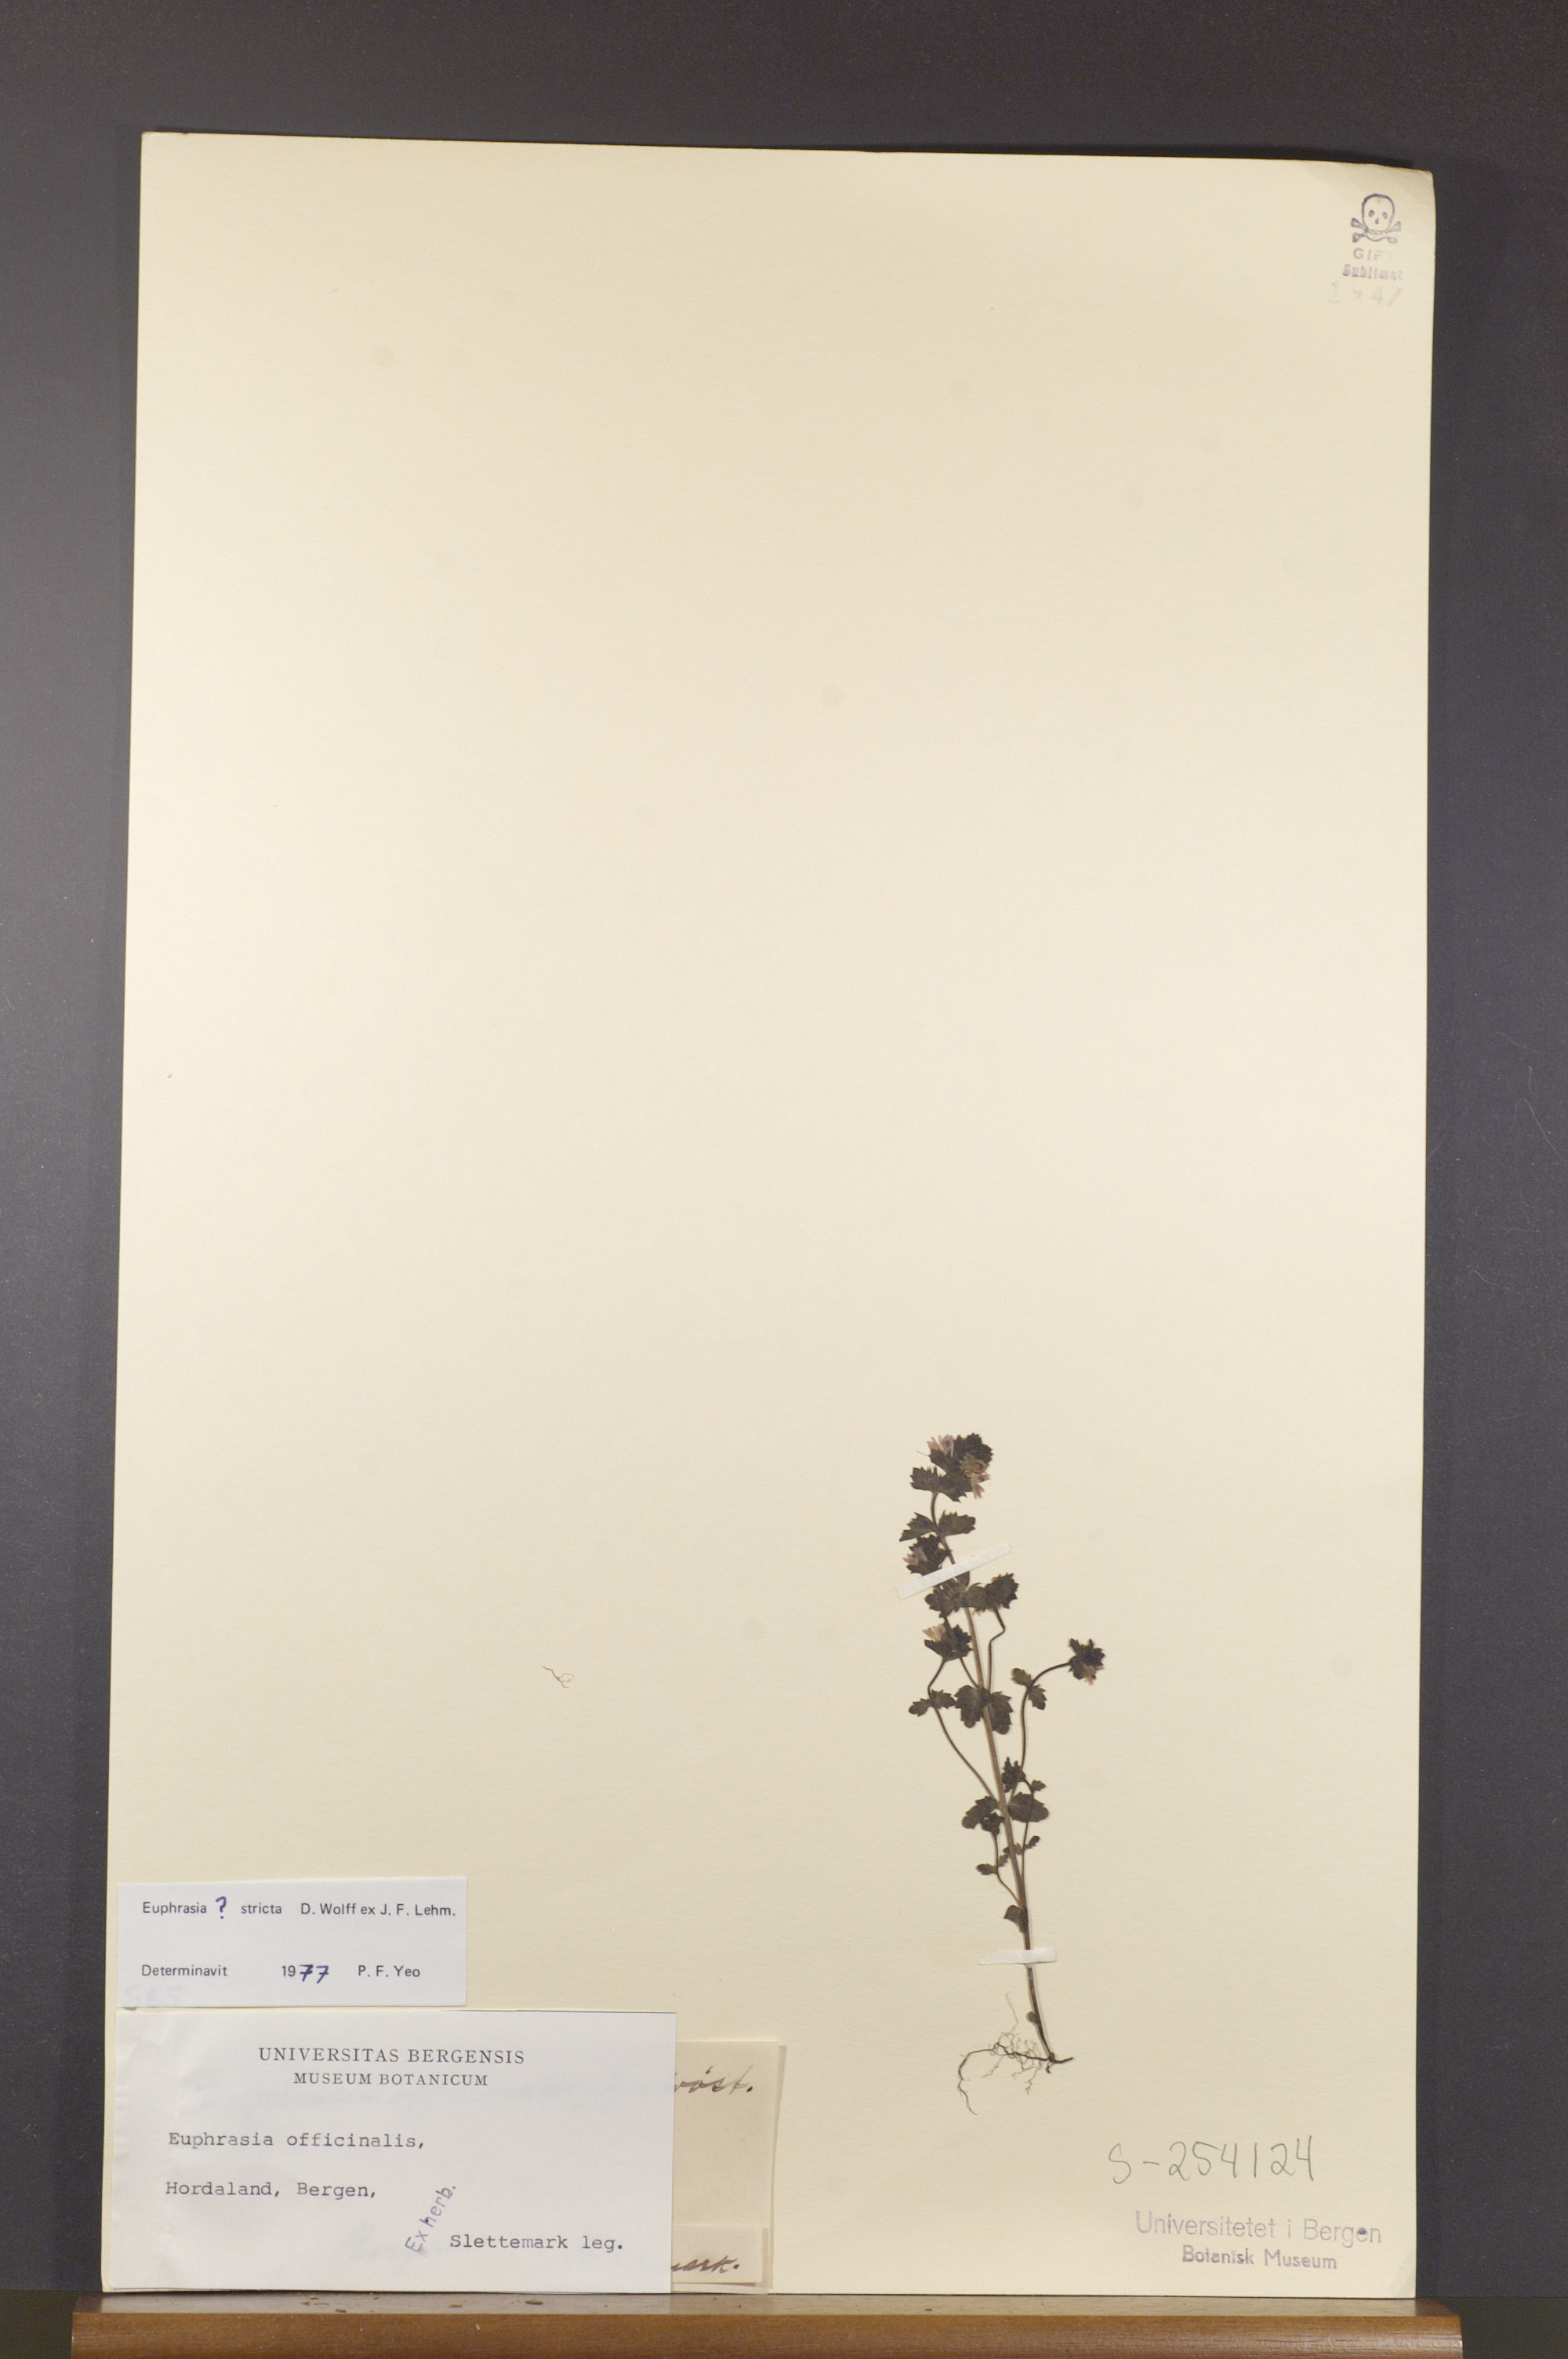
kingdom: Plantae
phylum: Tracheophyta
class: Magnoliopsida
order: Lamiales
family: Orobanchaceae
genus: Euphrasia
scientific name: Euphrasia stricta
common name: Drug eyebright
